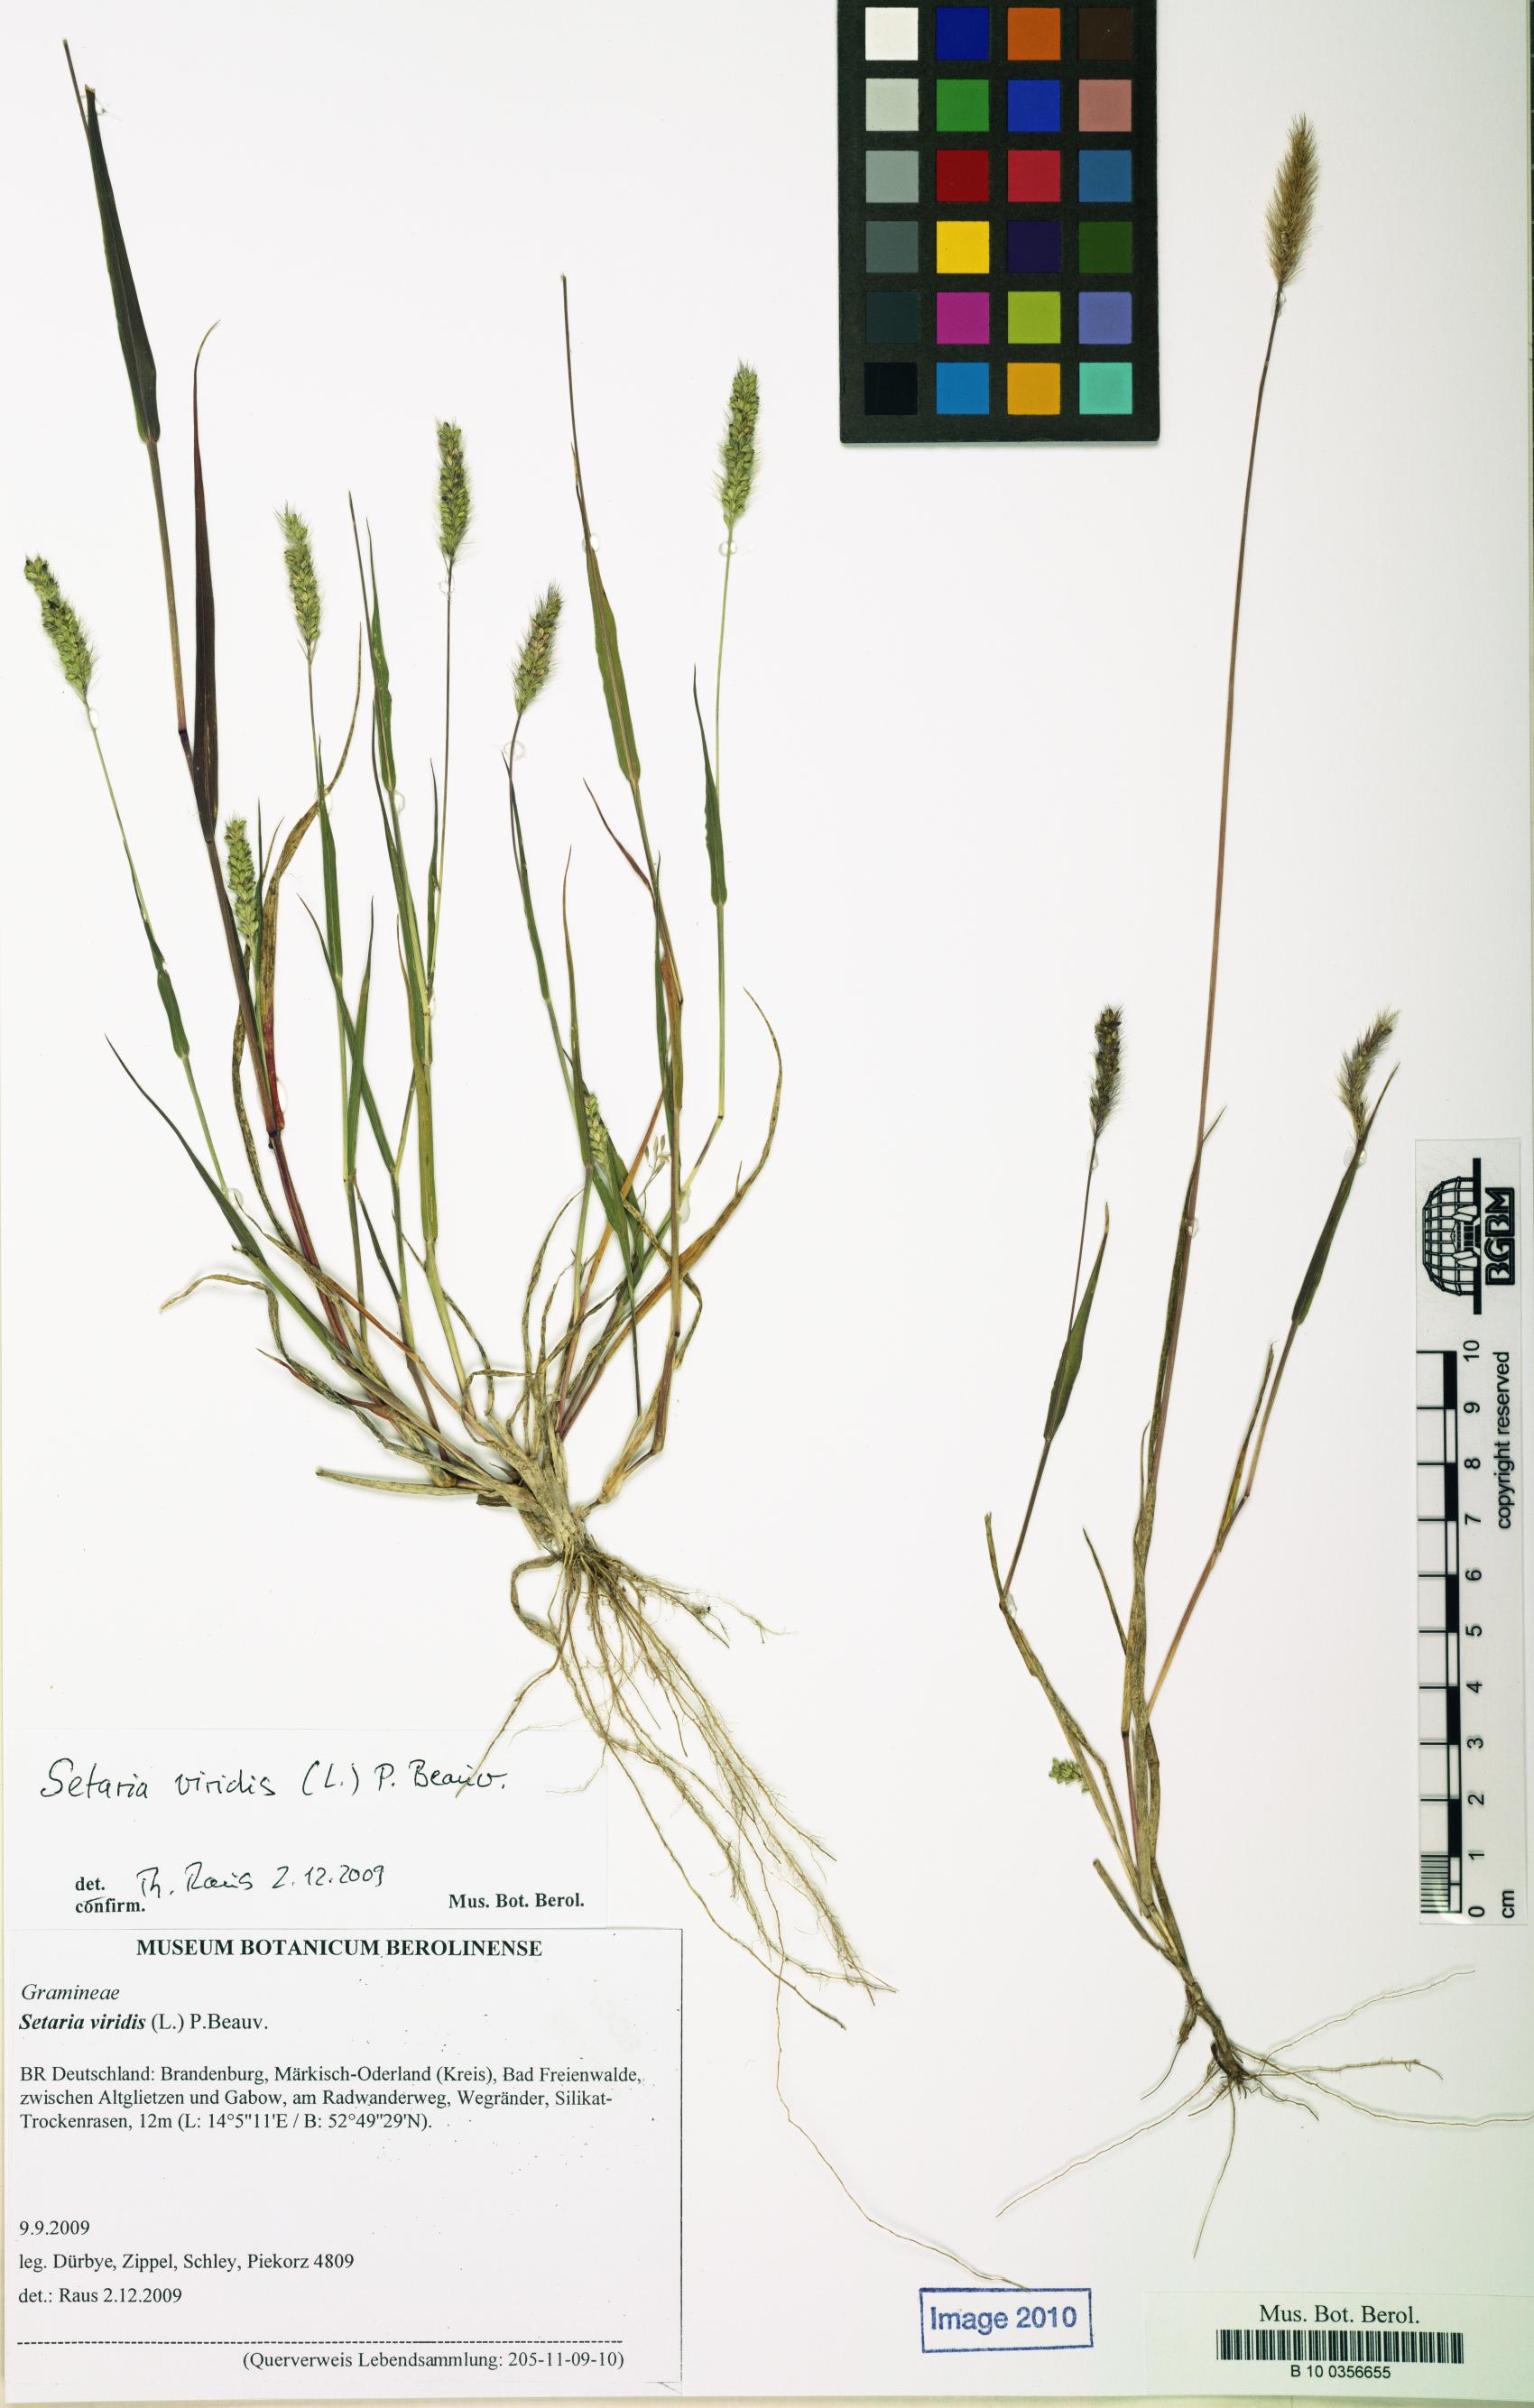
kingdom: Plantae
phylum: Tracheophyta
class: Liliopsida
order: Poales
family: Poaceae
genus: Setaria
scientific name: Setaria viridis
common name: Green bristlegrass
